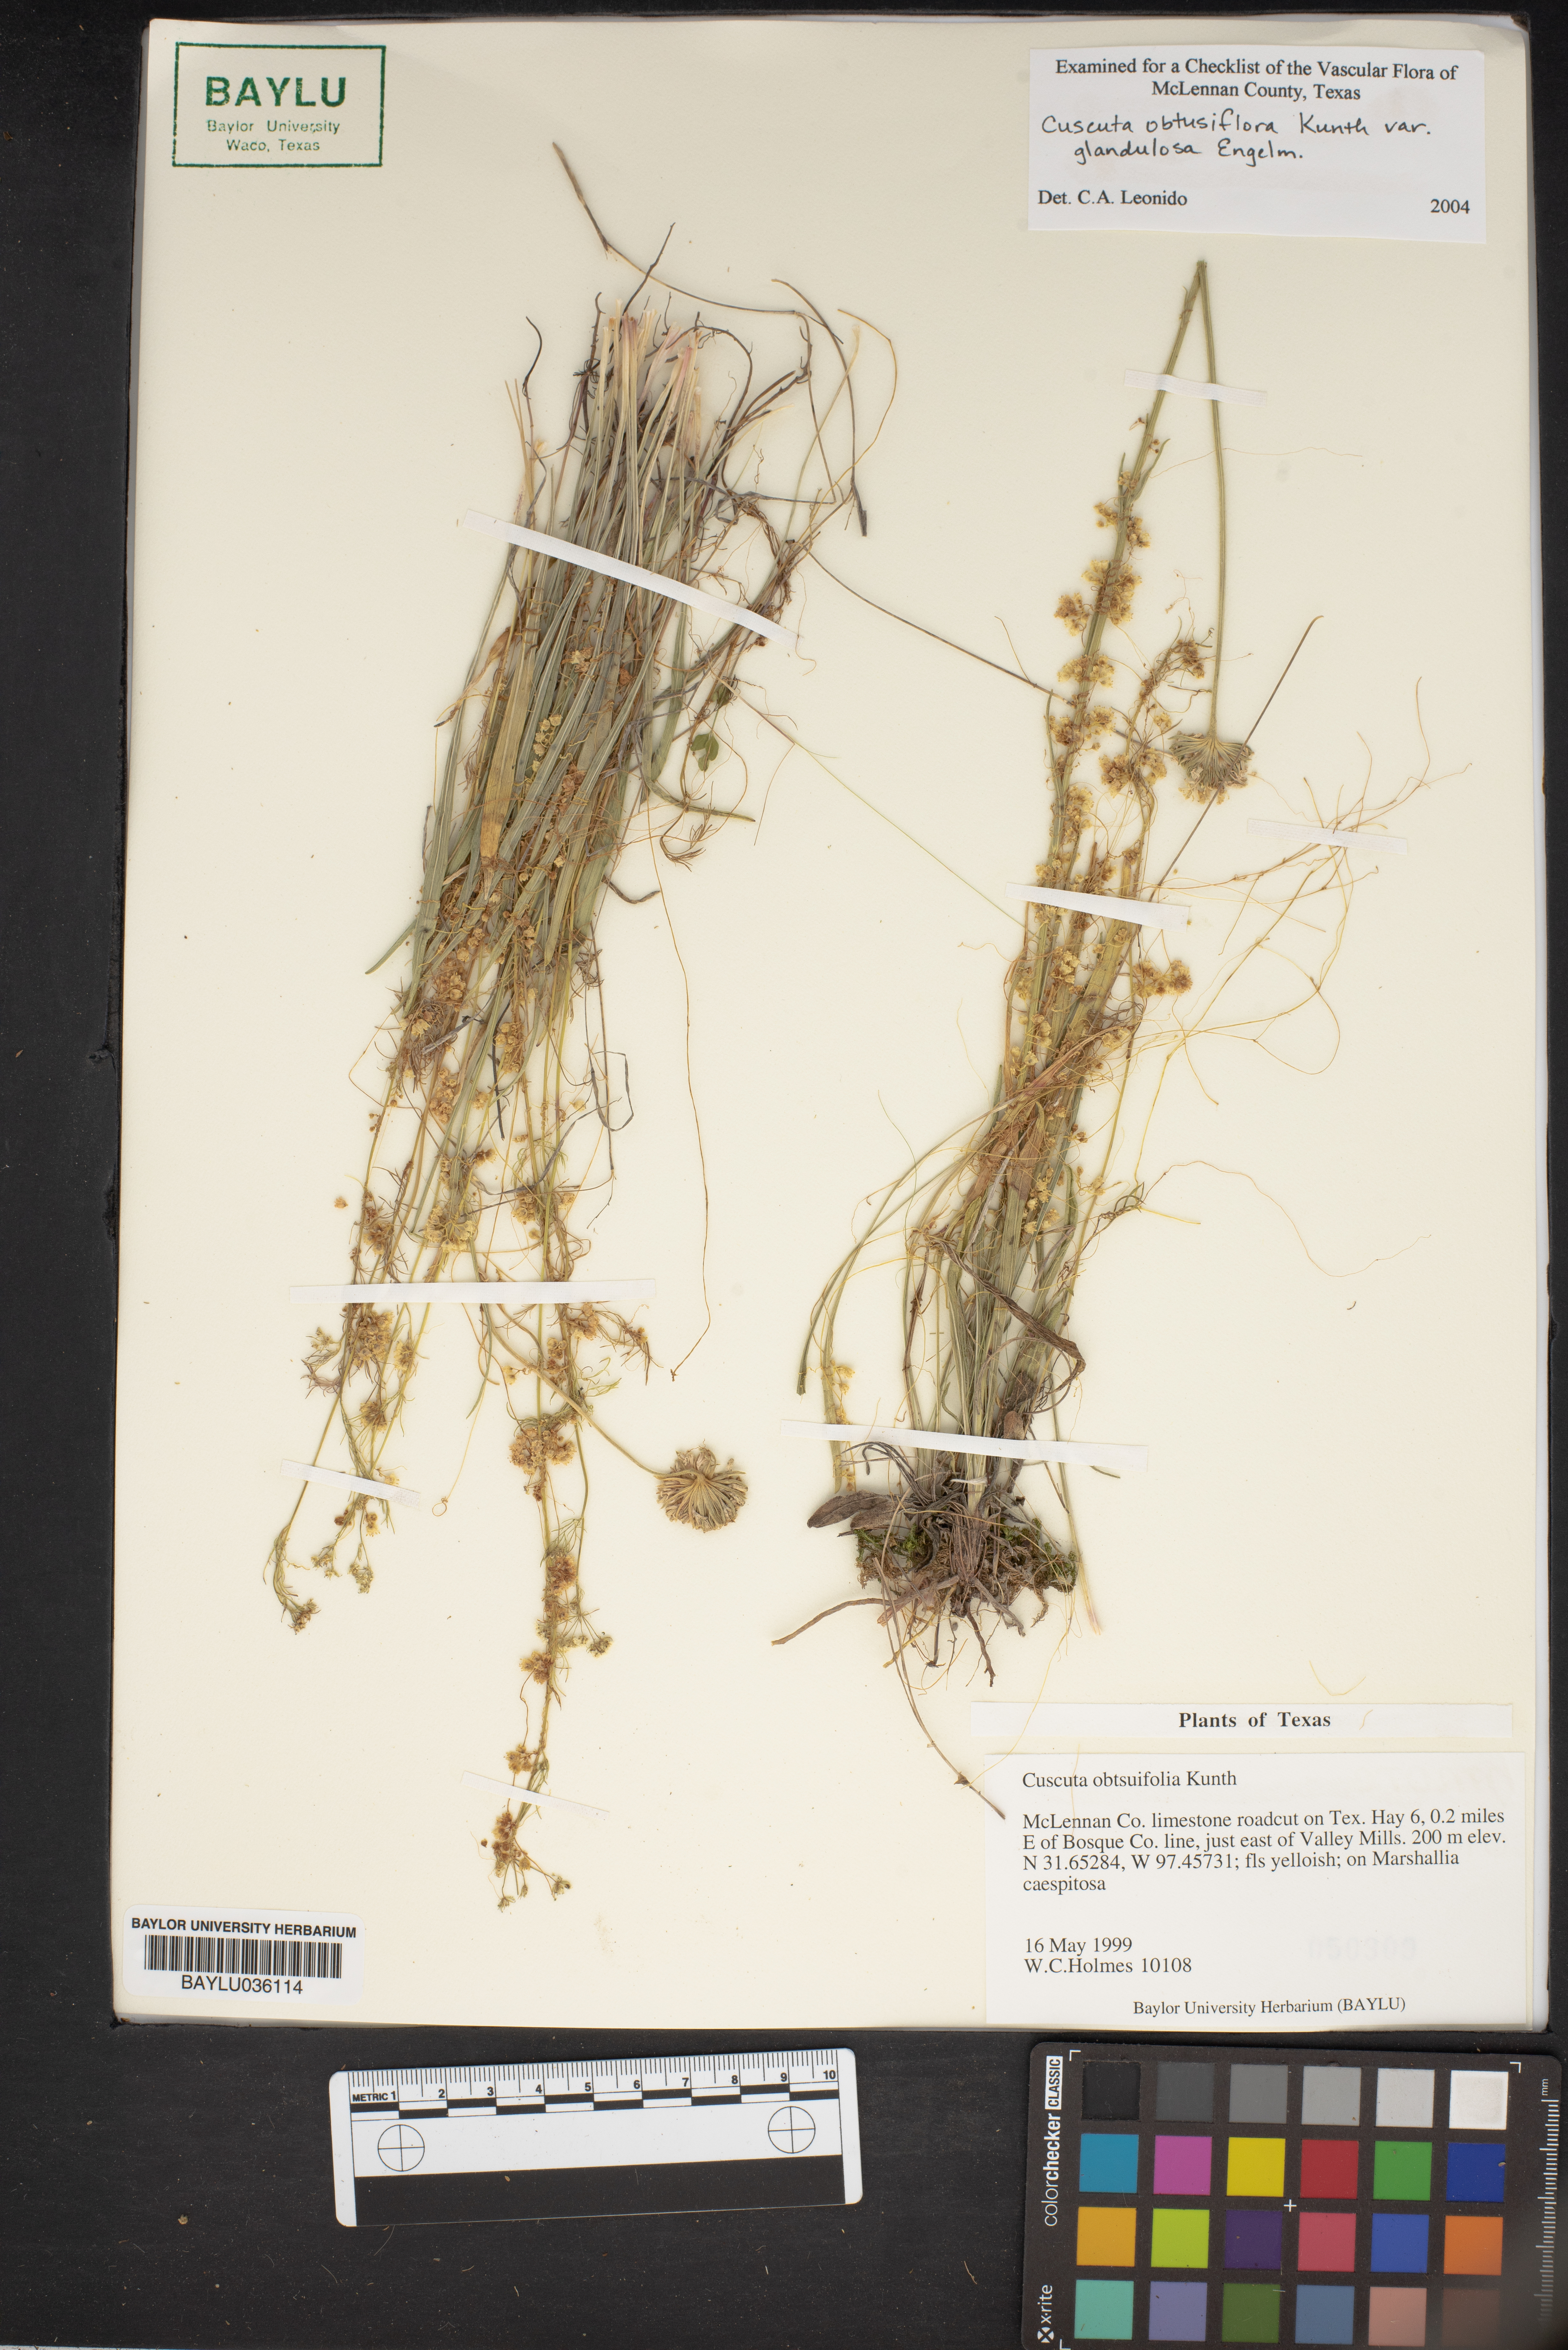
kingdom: Plantae
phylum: Tracheophyta
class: Magnoliopsida
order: Solanales
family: Convolvulaceae
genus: Cuscuta
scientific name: Cuscuta obtusiflora
